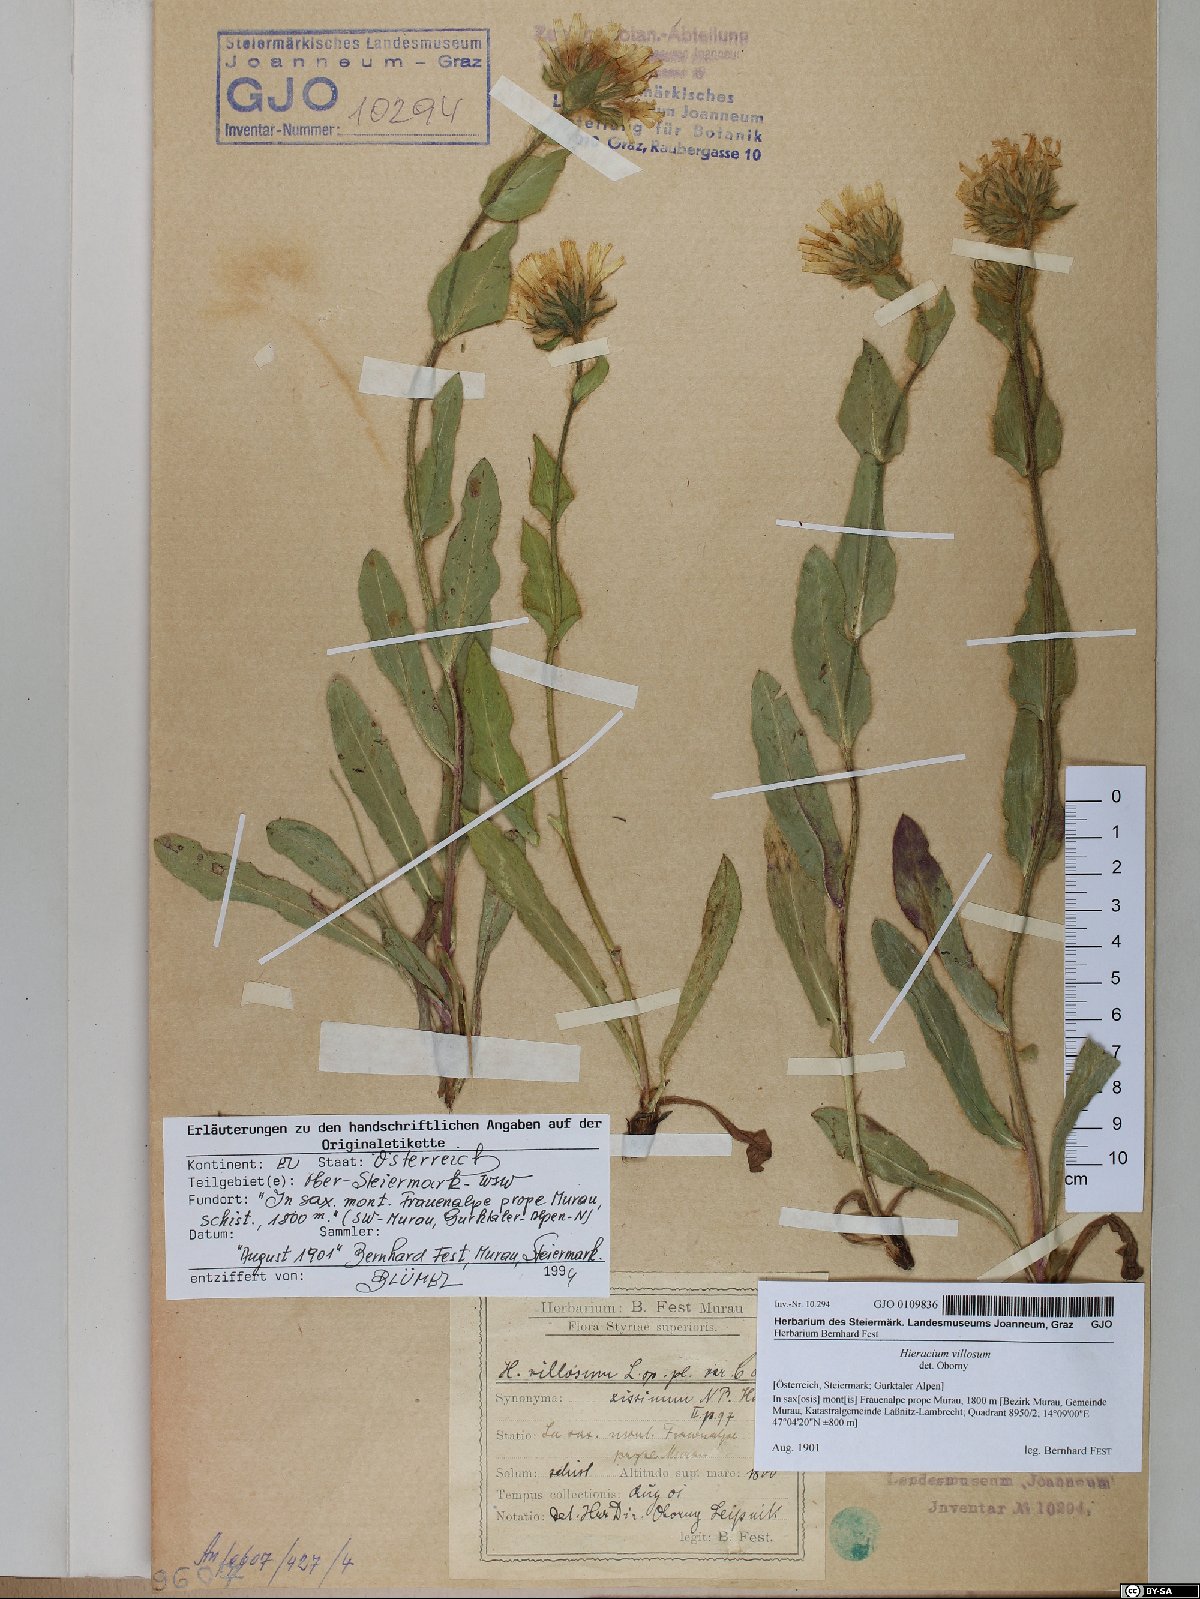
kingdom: Plantae
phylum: Tracheophyta
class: Magnoliopsida
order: Asterales
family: Asteraceae
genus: Hieracium
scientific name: Hieracium villosum
